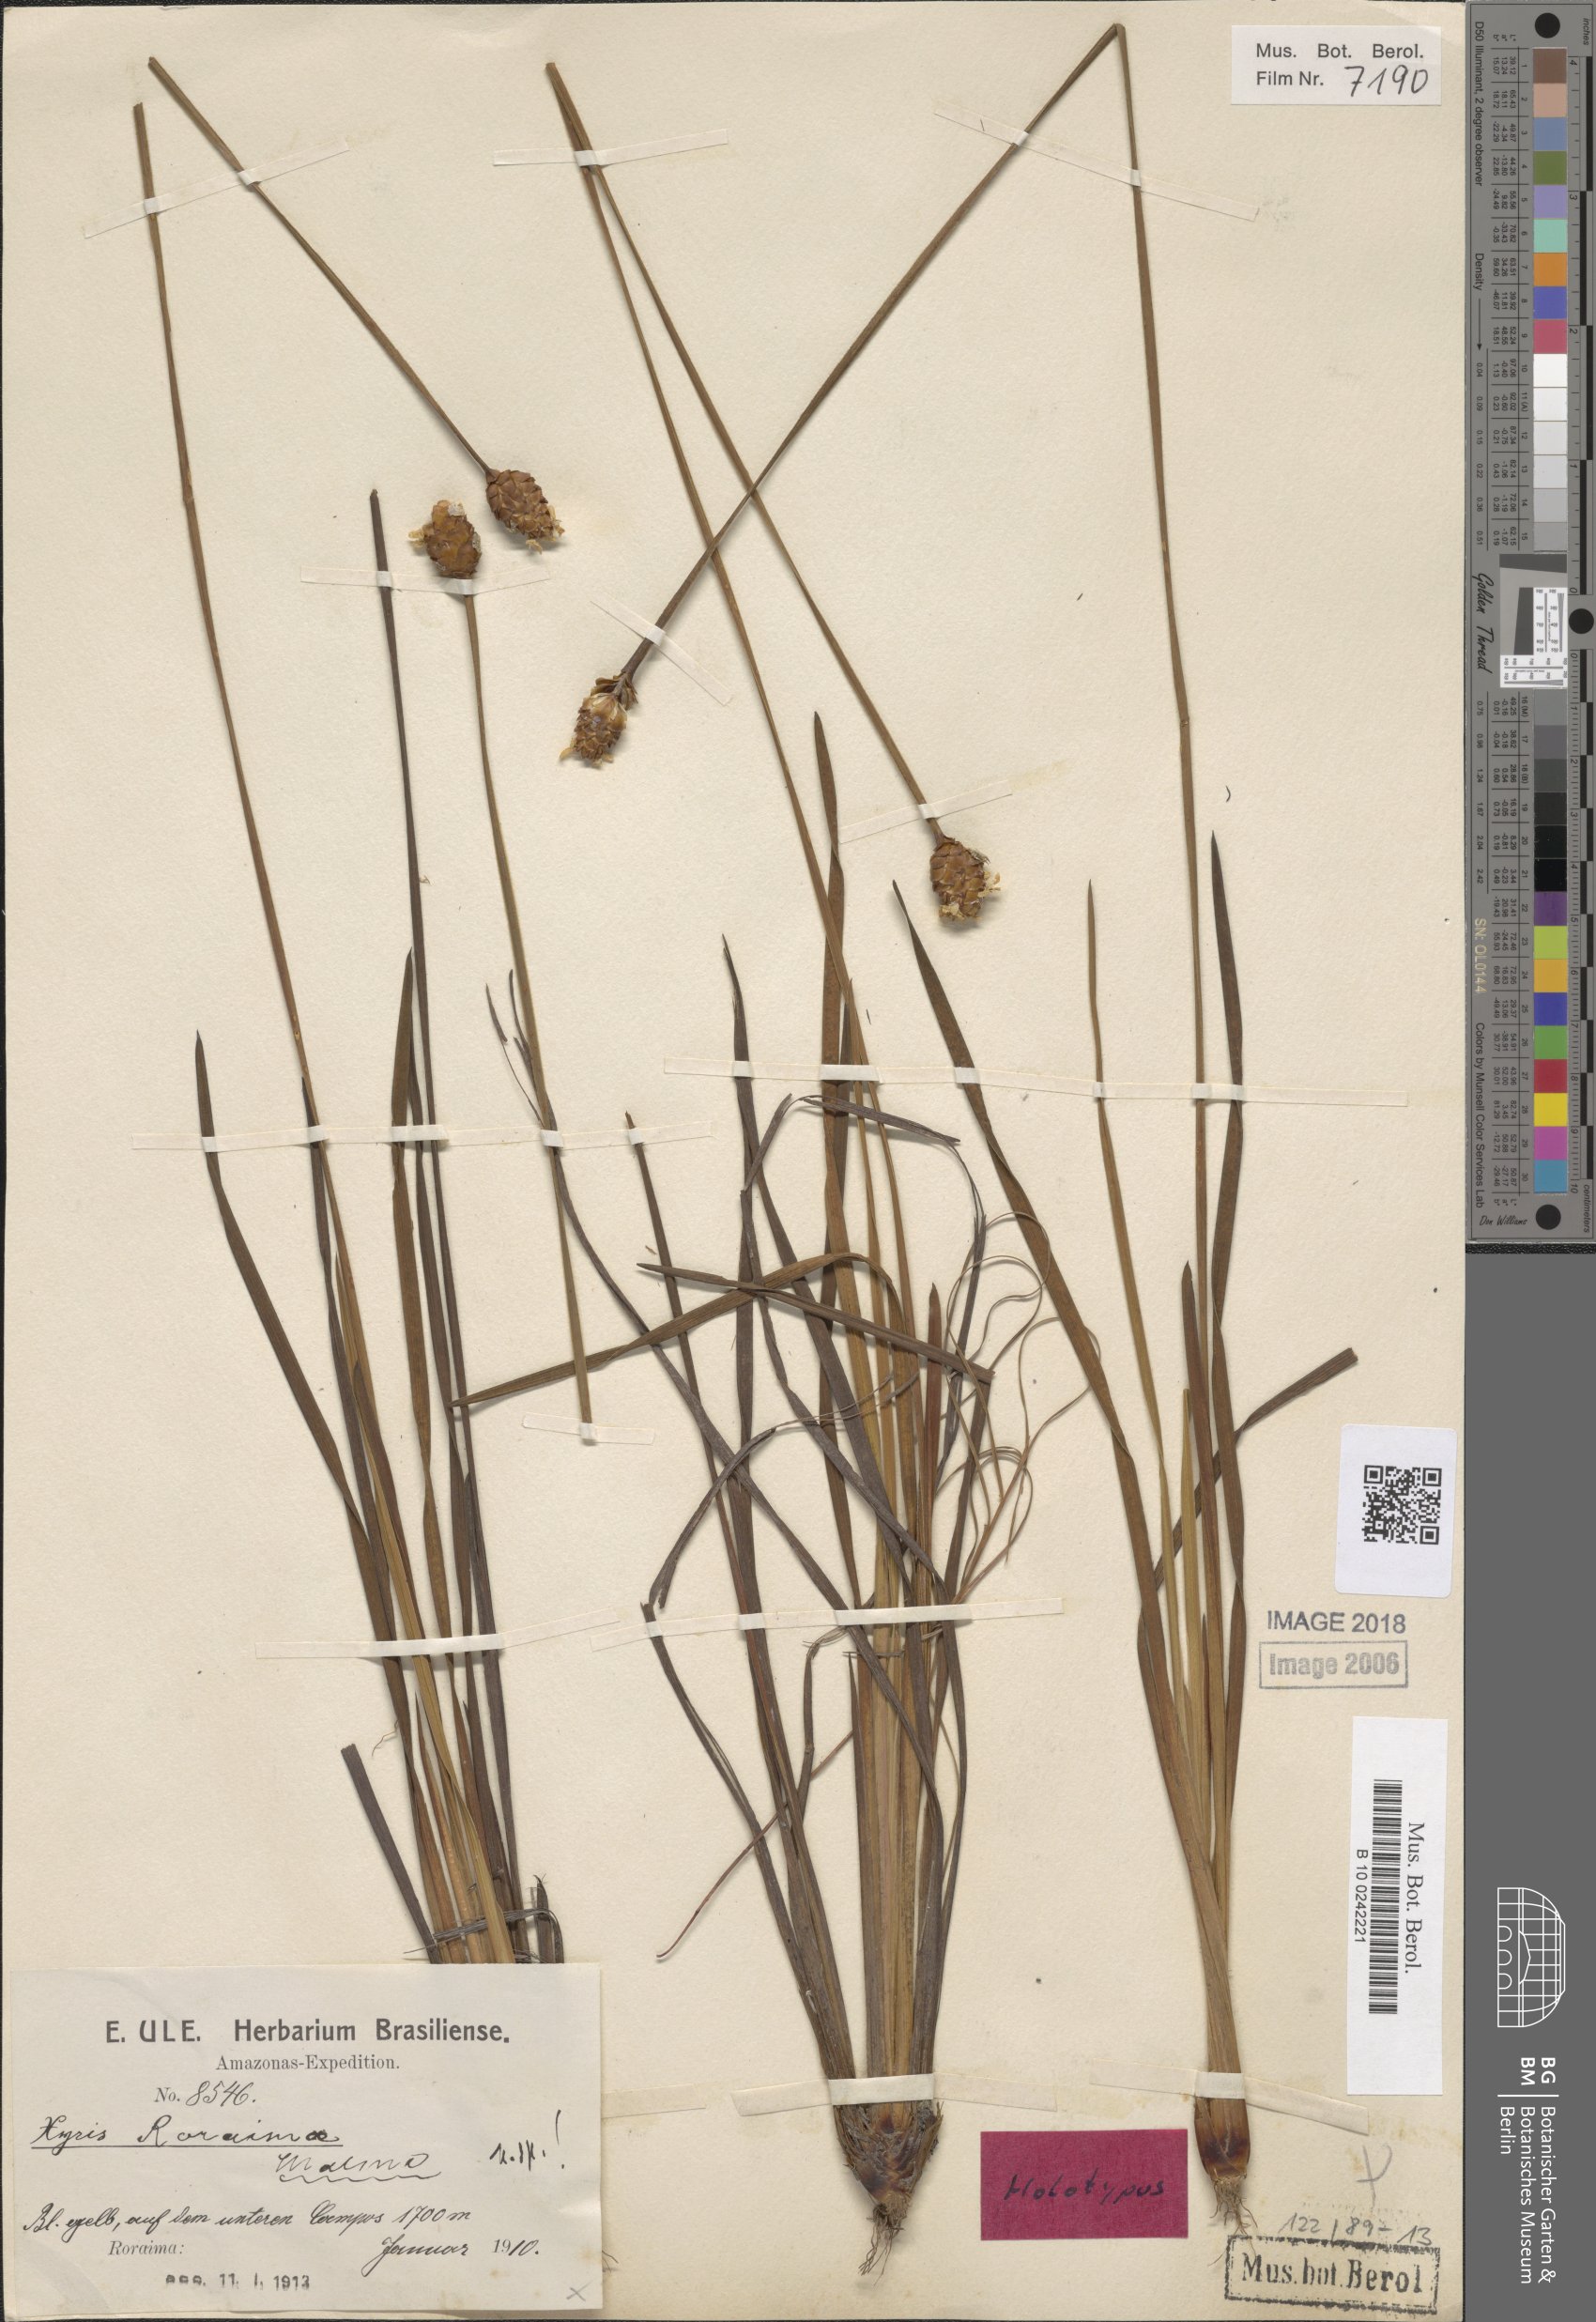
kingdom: Plantae
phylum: Tracheophyta
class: Liliopsida
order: Poales
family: Xyridaceae
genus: Xyris
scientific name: Xyris roraimae
